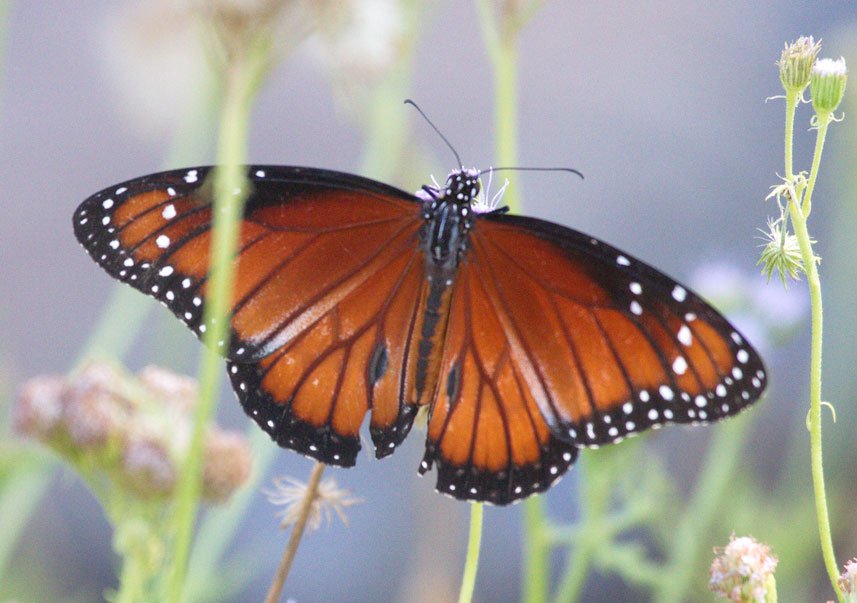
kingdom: Animalia
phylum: Arthropoda
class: Insecta
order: Lepidoptera
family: Nymphalidae
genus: Danaus
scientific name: Danaus eresimus
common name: Soldier
